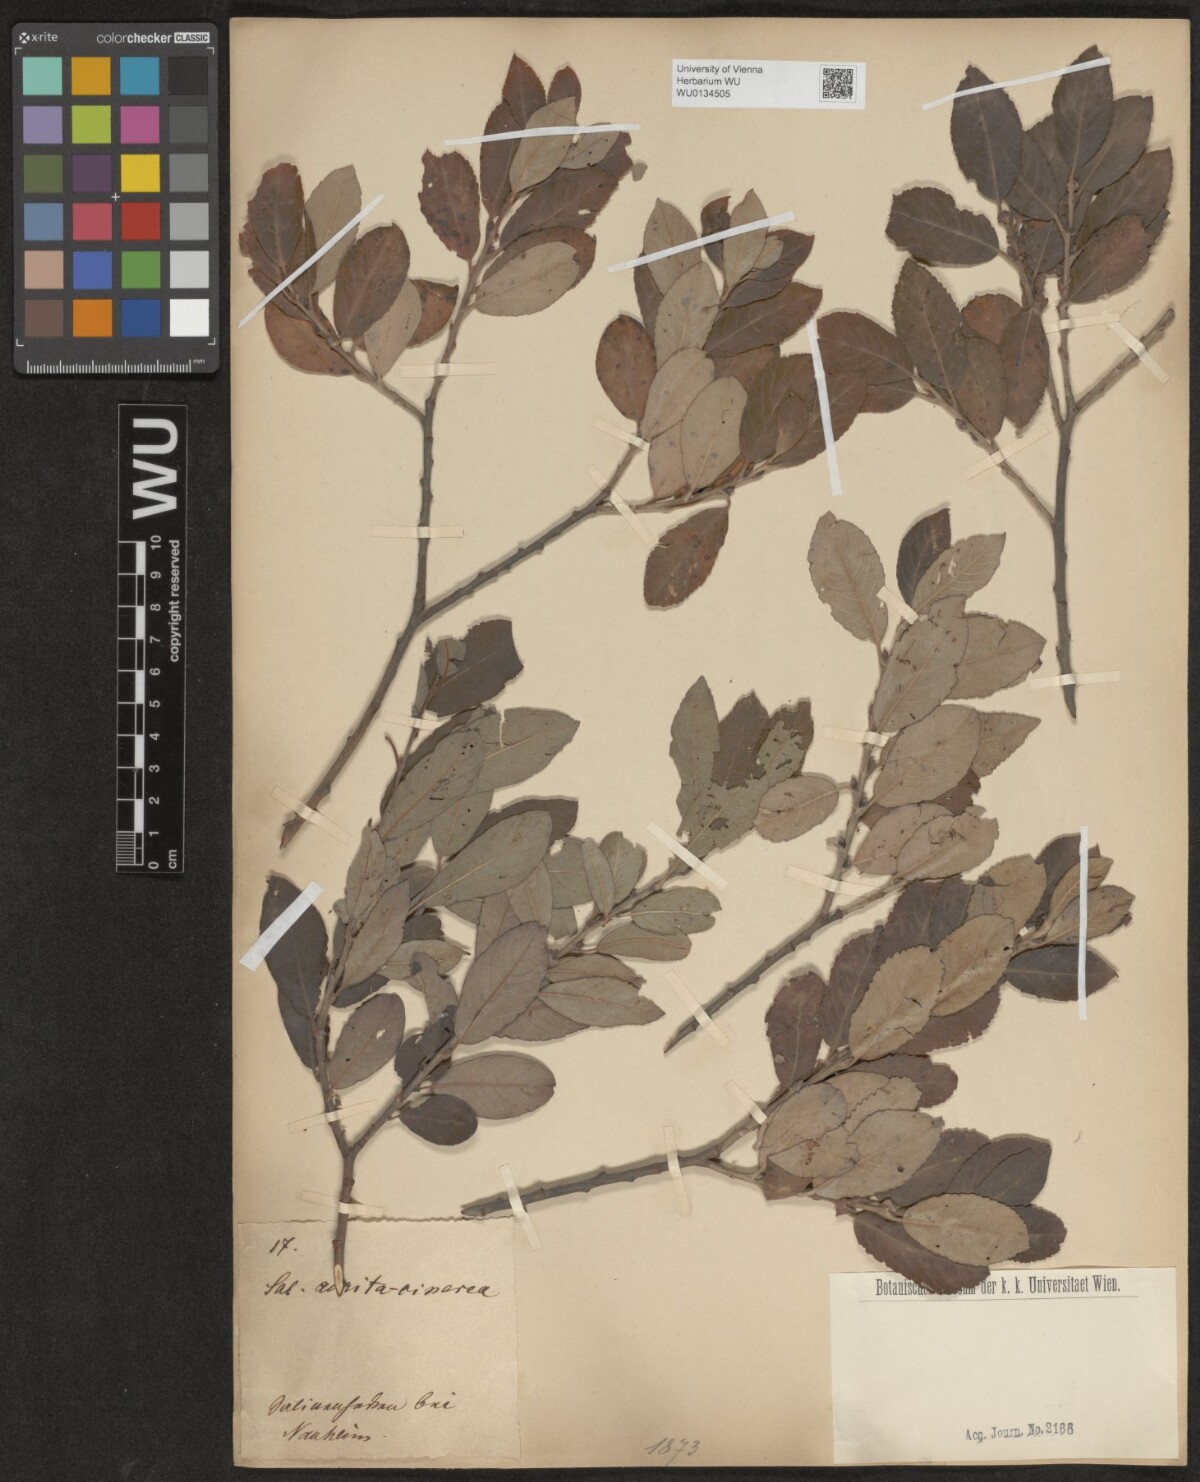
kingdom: Plantae
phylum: Tracheophyta
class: Magnoliopsida
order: Malpighiales
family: Salicaceae
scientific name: Salicaceae
